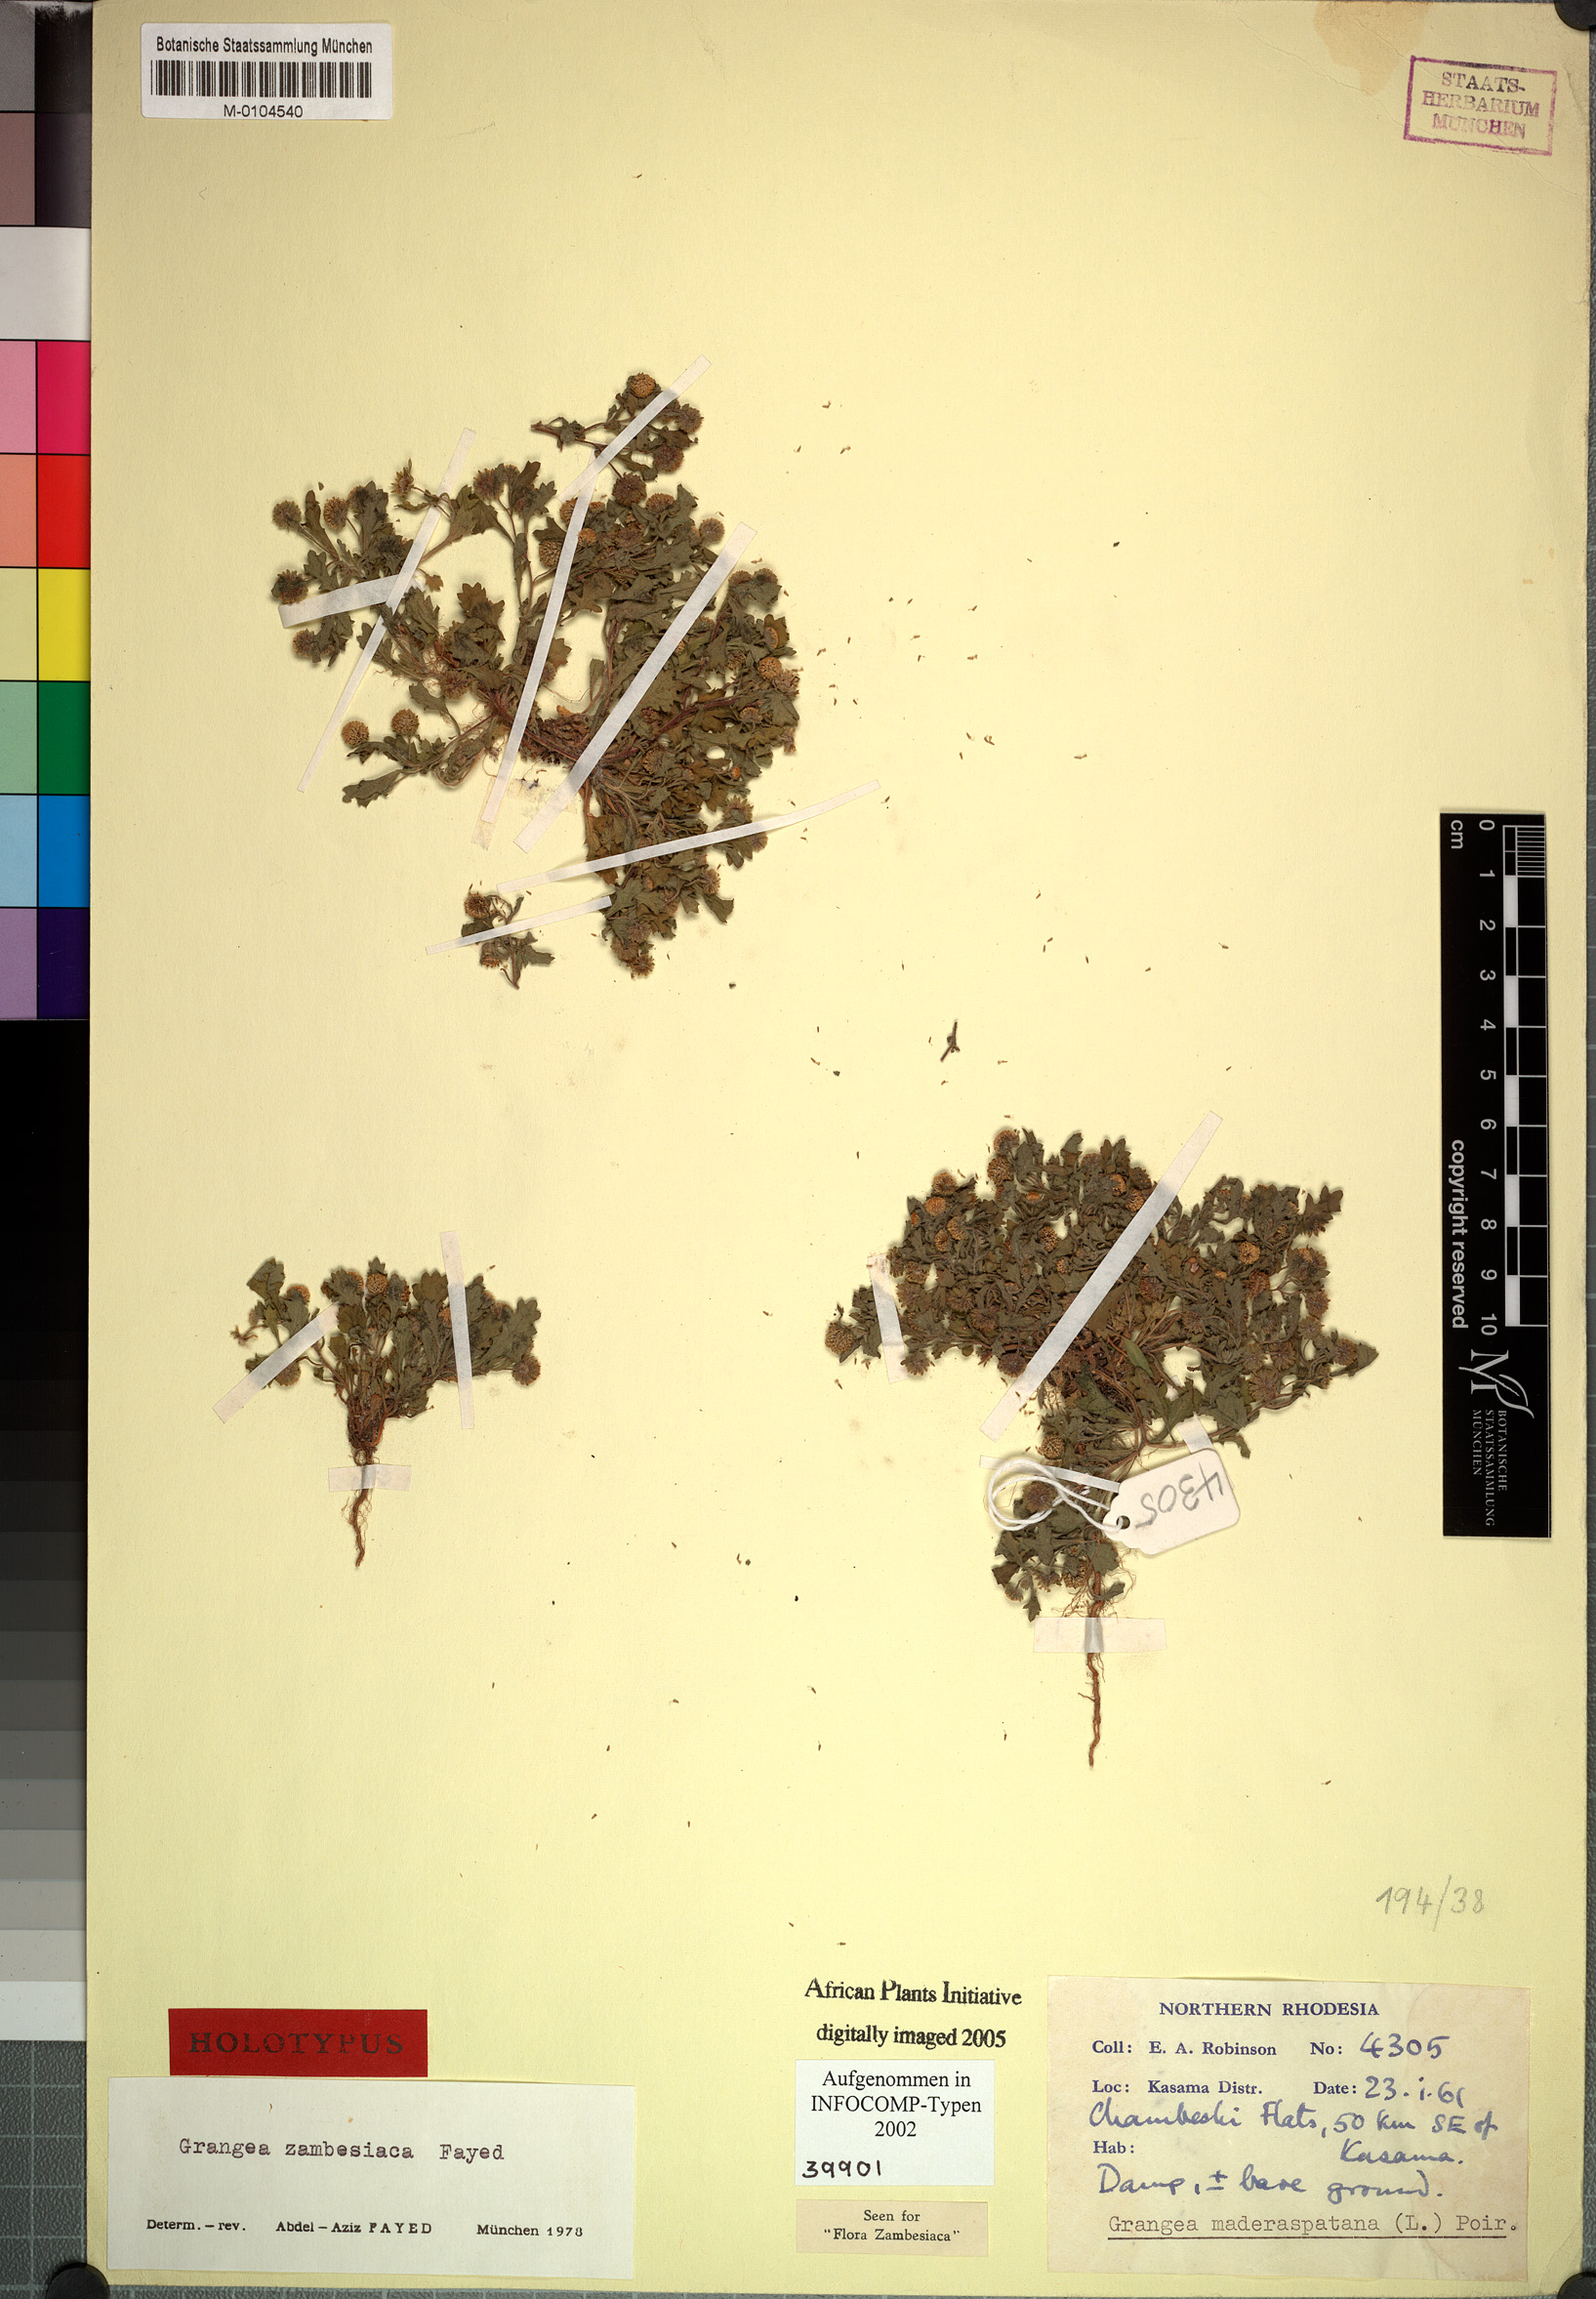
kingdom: Plantae
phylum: Tracheophyta
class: Magnoliopsida
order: Asterales
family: Asteraceae
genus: Grangea
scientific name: Grangea zambesiaca
